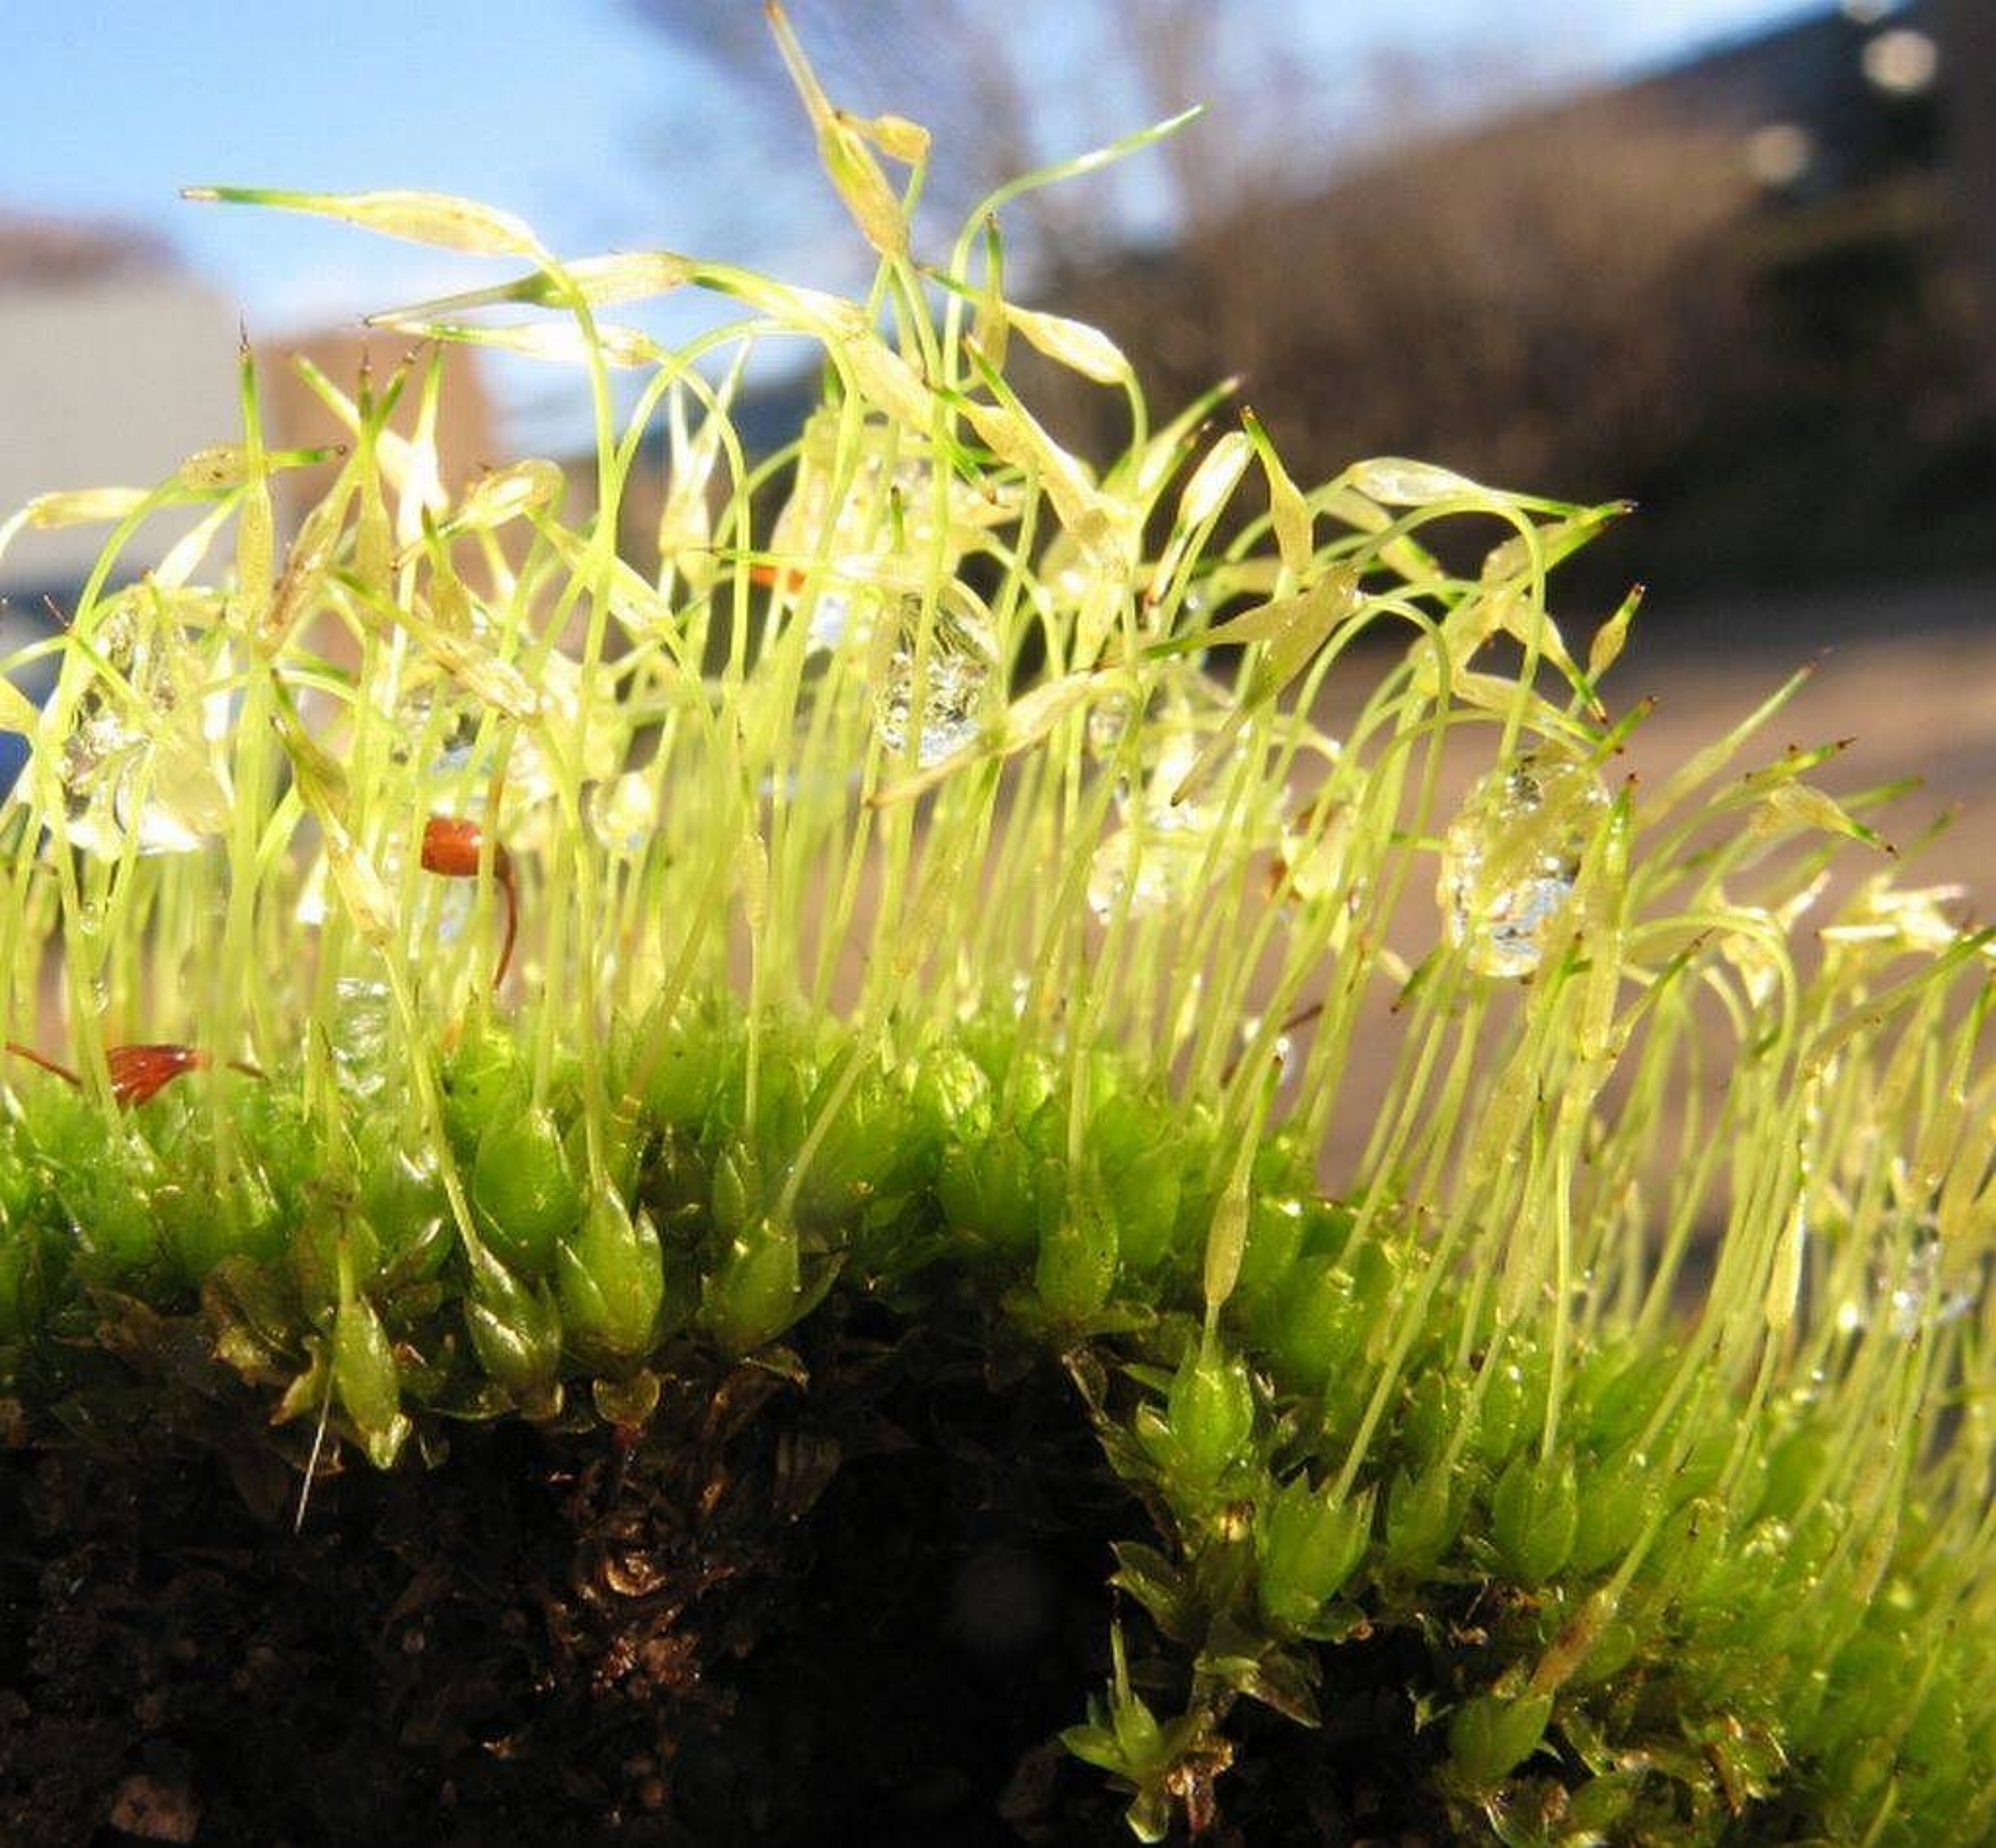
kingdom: Plantae
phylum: Bryophyta
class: Bryopsida
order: Funariales
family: Funariaceae
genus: Funaria
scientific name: Funaria hygrometrica
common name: Almindelig snobørste
